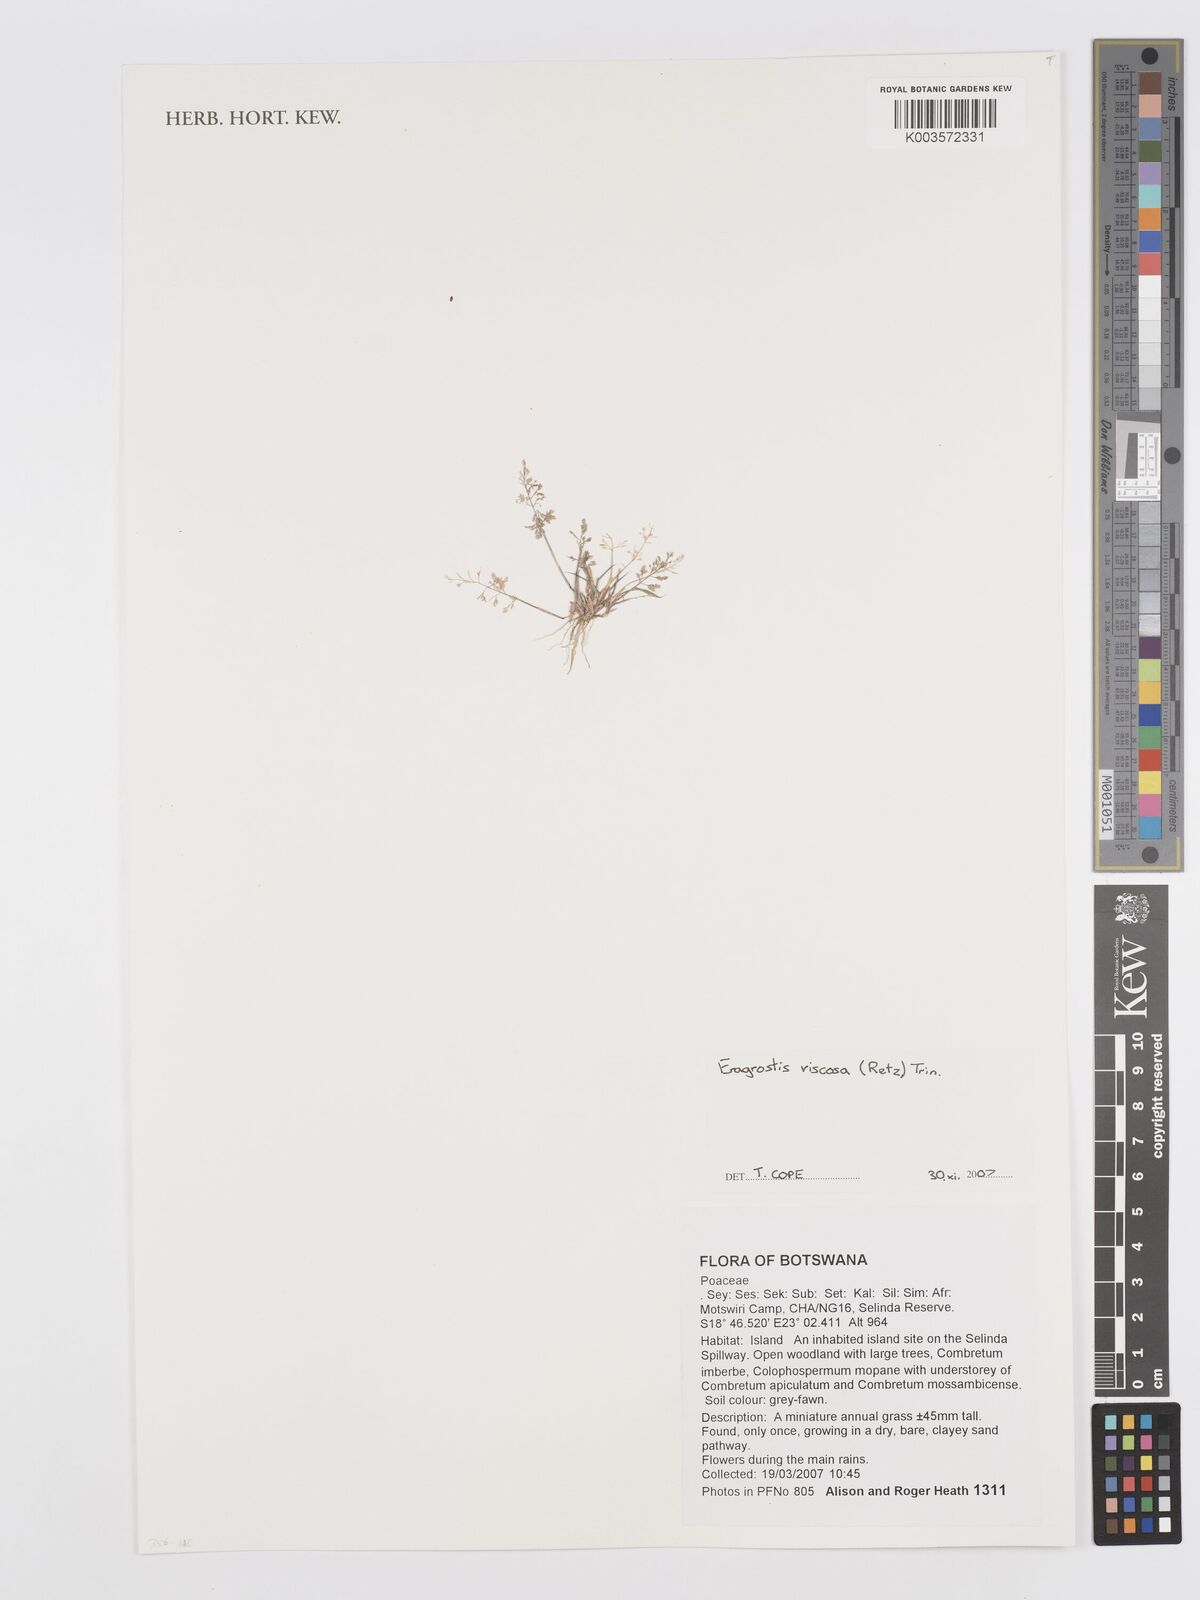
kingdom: Plantae
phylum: Tracheophyta
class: Liliopsida
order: Poales
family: Poaceae
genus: Eragrostis
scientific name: Eragrostis
